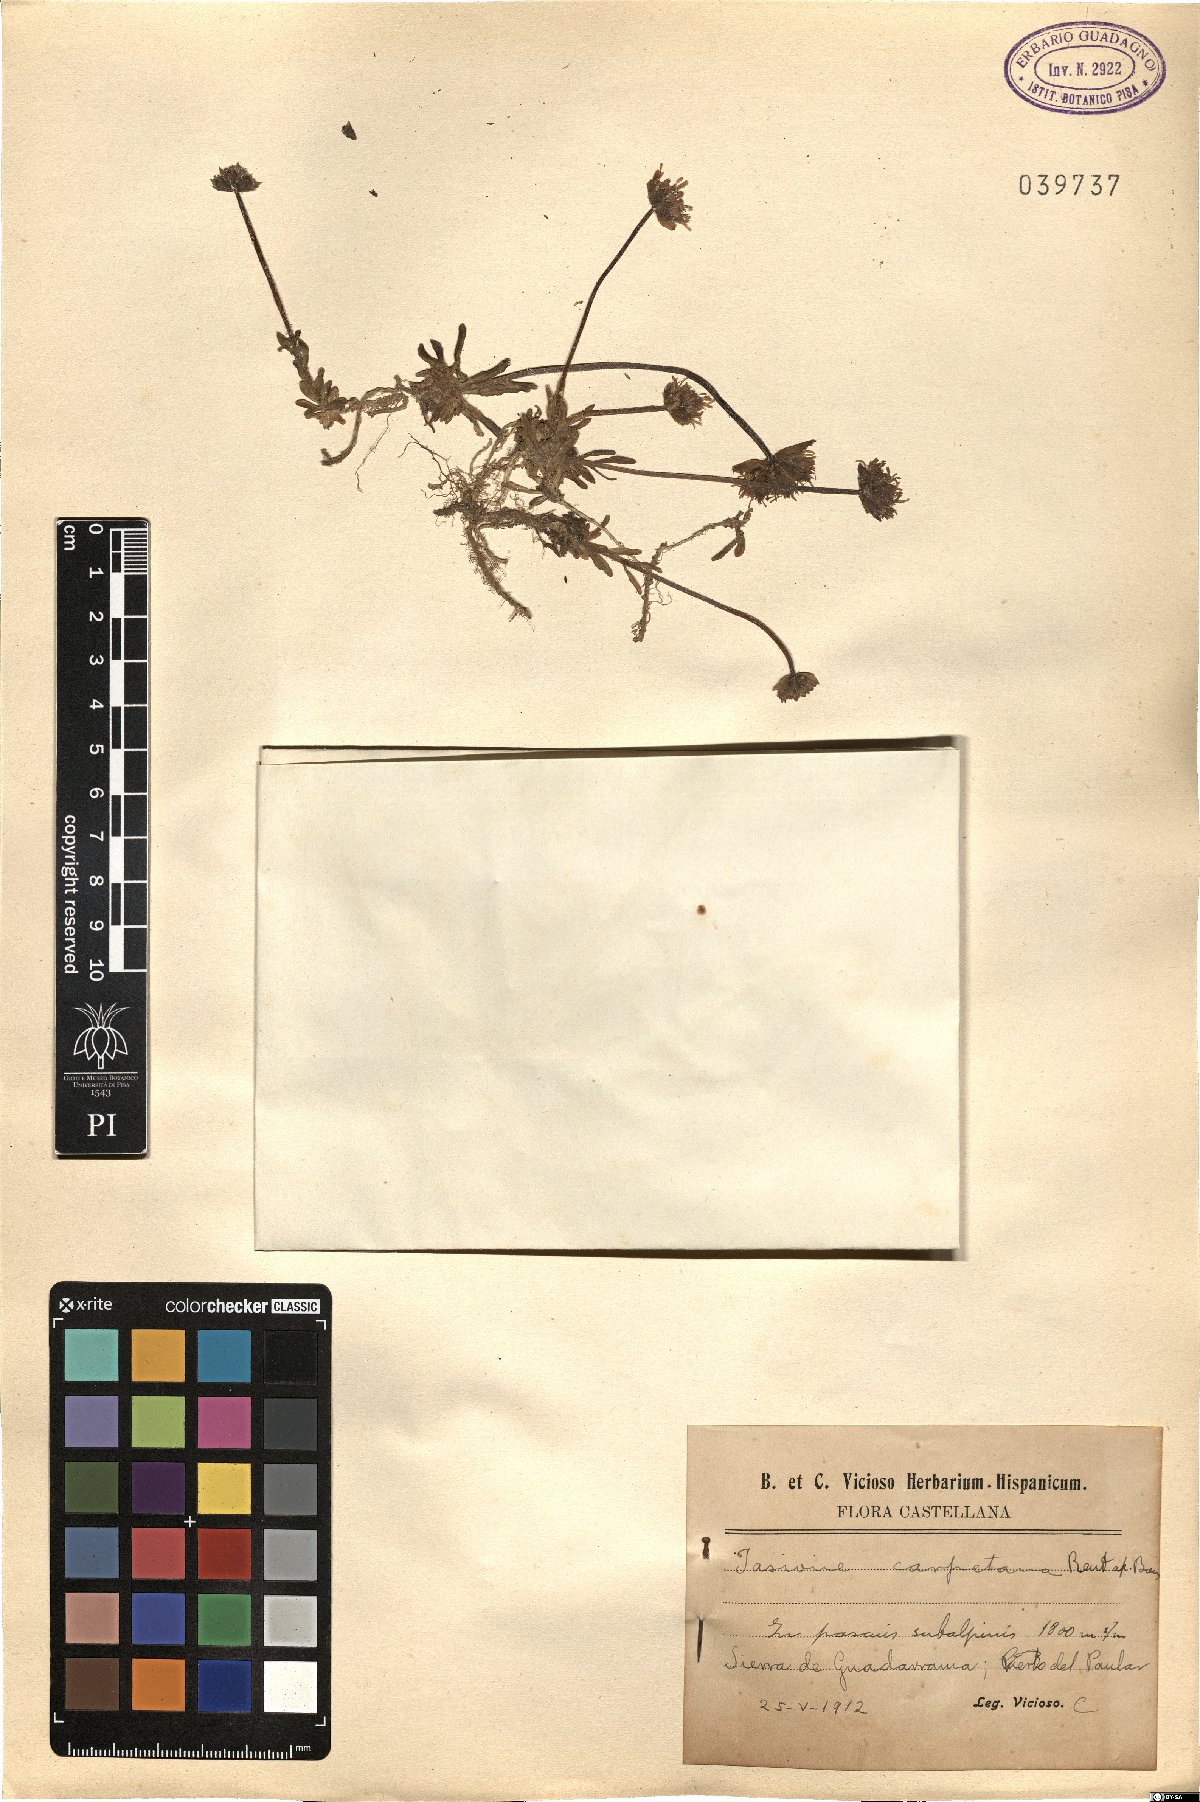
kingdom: Plantae
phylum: Tracheophyta
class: Magnoliopsida
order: Asterales
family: Campanulaceae
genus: Jasione
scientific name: Jasione laevis
